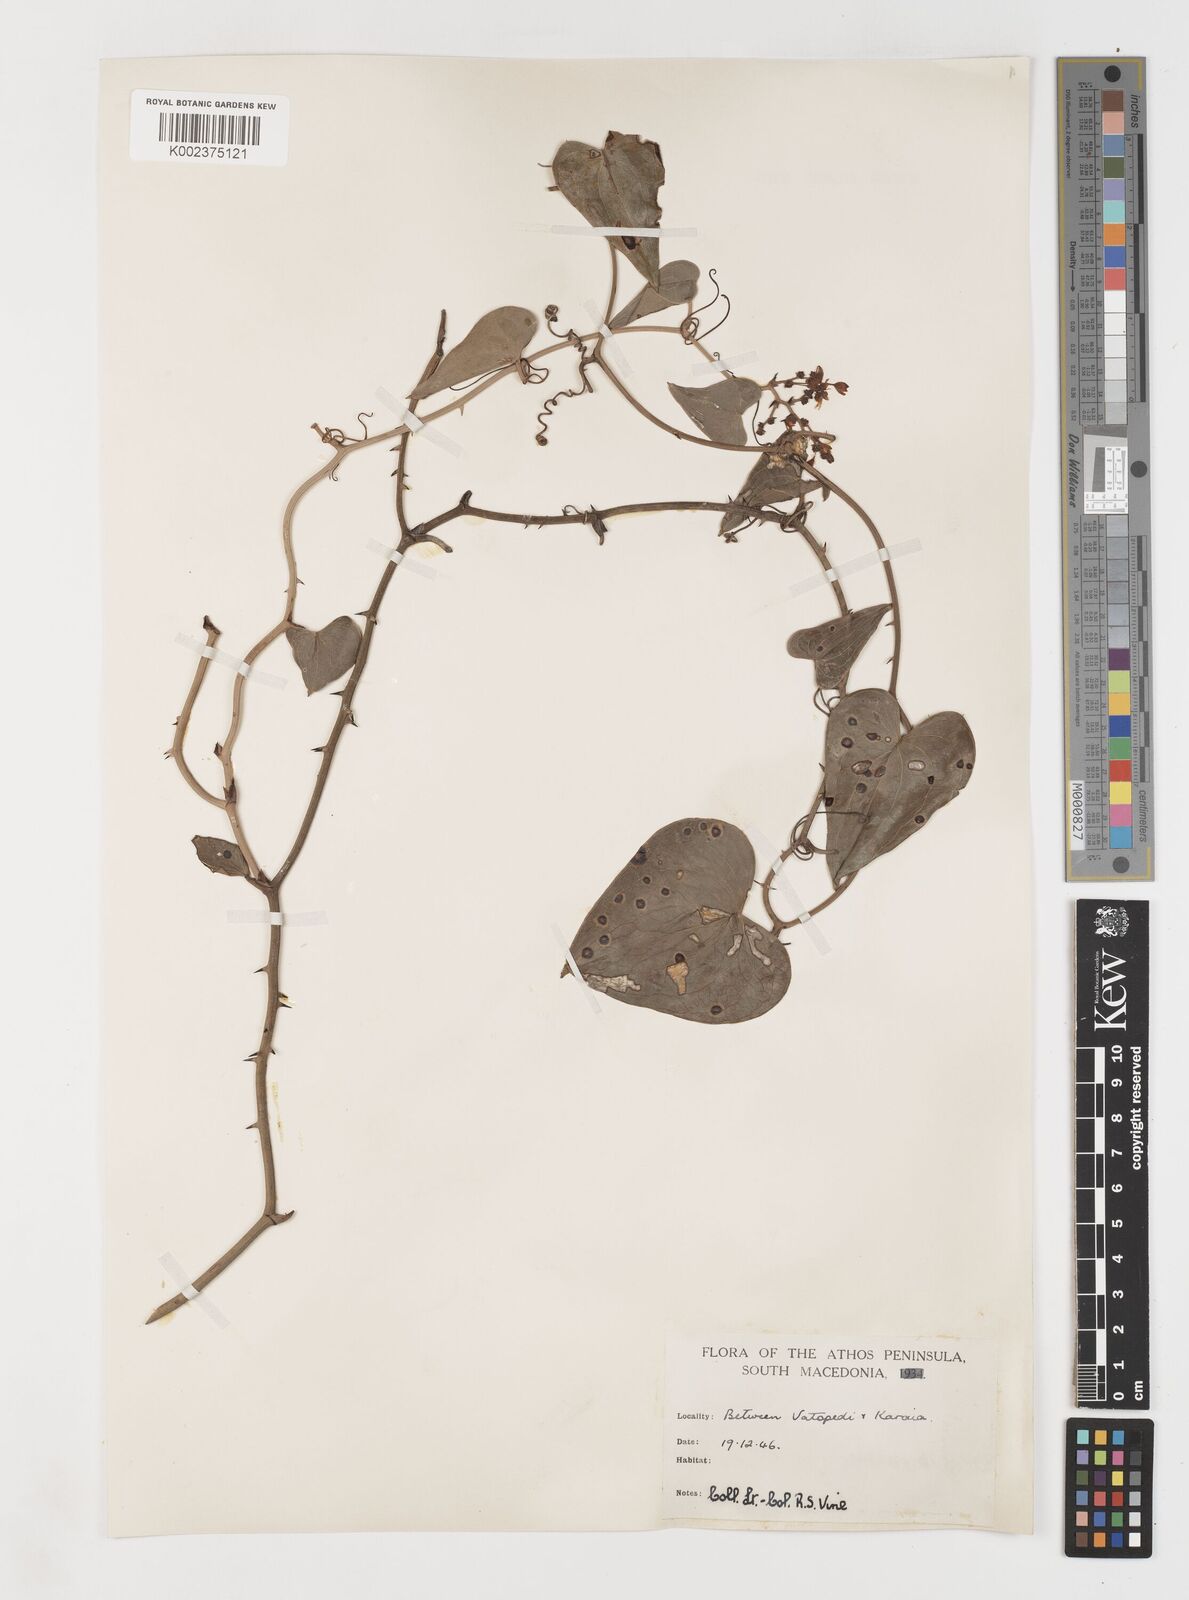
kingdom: Plantae
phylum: Tracheophyta
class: Liliopsida
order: Liliales
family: Smilacaceae
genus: Smilax
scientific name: Smilax aspera
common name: Common smilax
